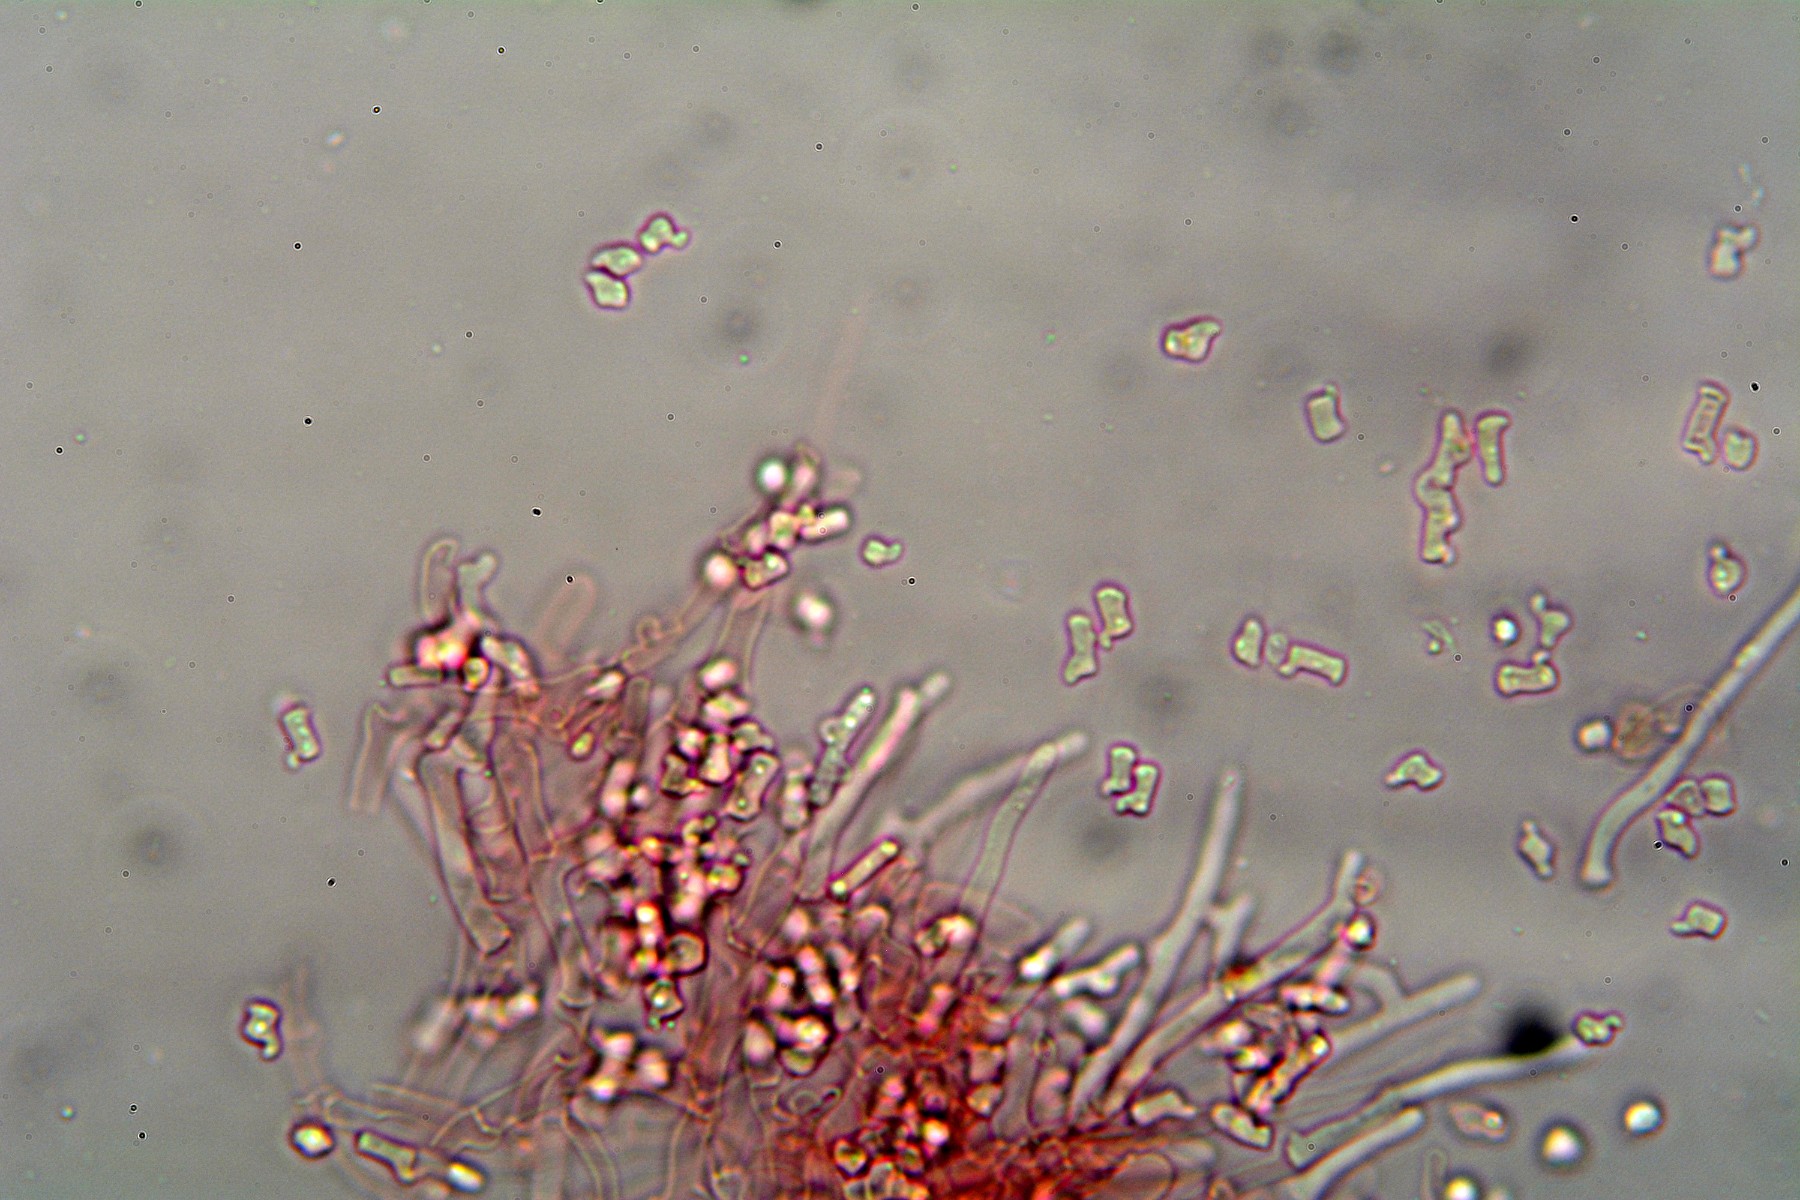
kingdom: Fungi
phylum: Basidiomycota
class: Agaricomycetes
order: Trechisporales
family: Sistotremataceae
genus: Trechispora
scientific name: Trechispora stevensonii
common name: støvende vathinde
